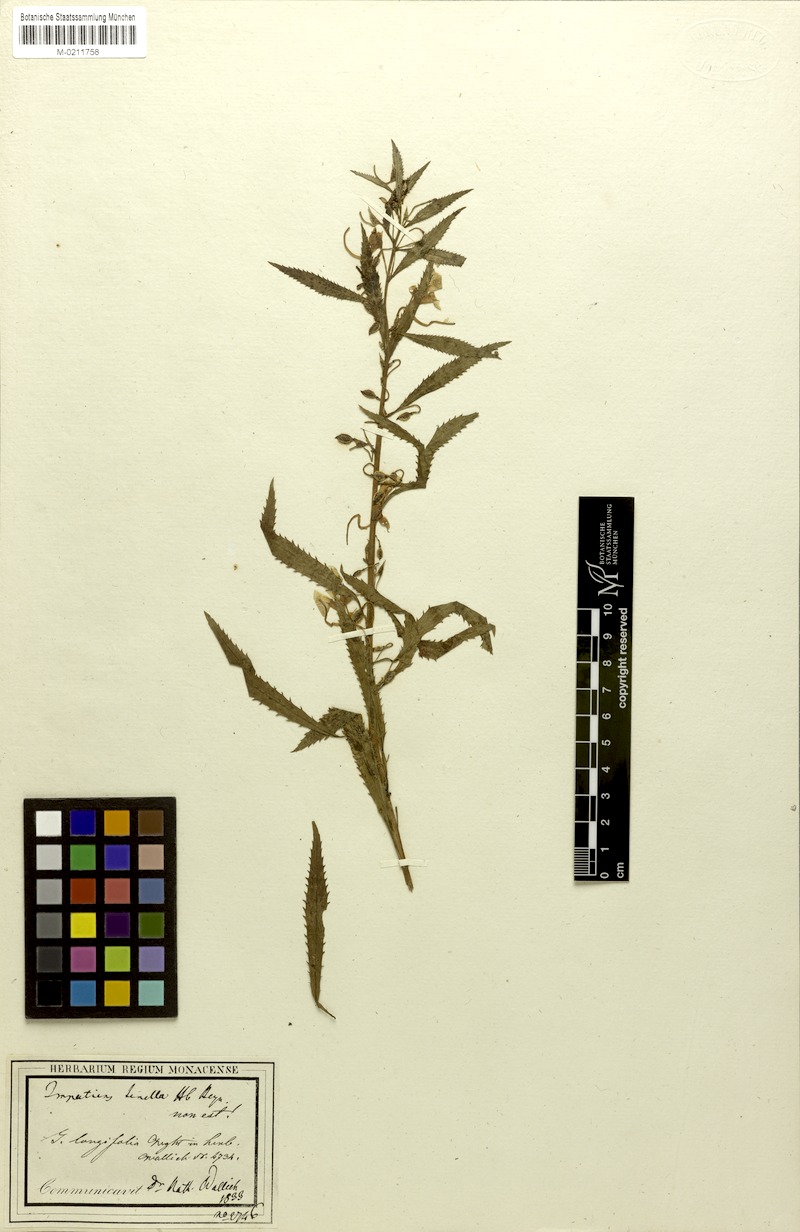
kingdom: Plantae
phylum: Tracheophyta
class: Magnoliopsida
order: Ericales
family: Balsaminaceae
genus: Impatiens
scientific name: Impatiens balsamina
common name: Balsam
